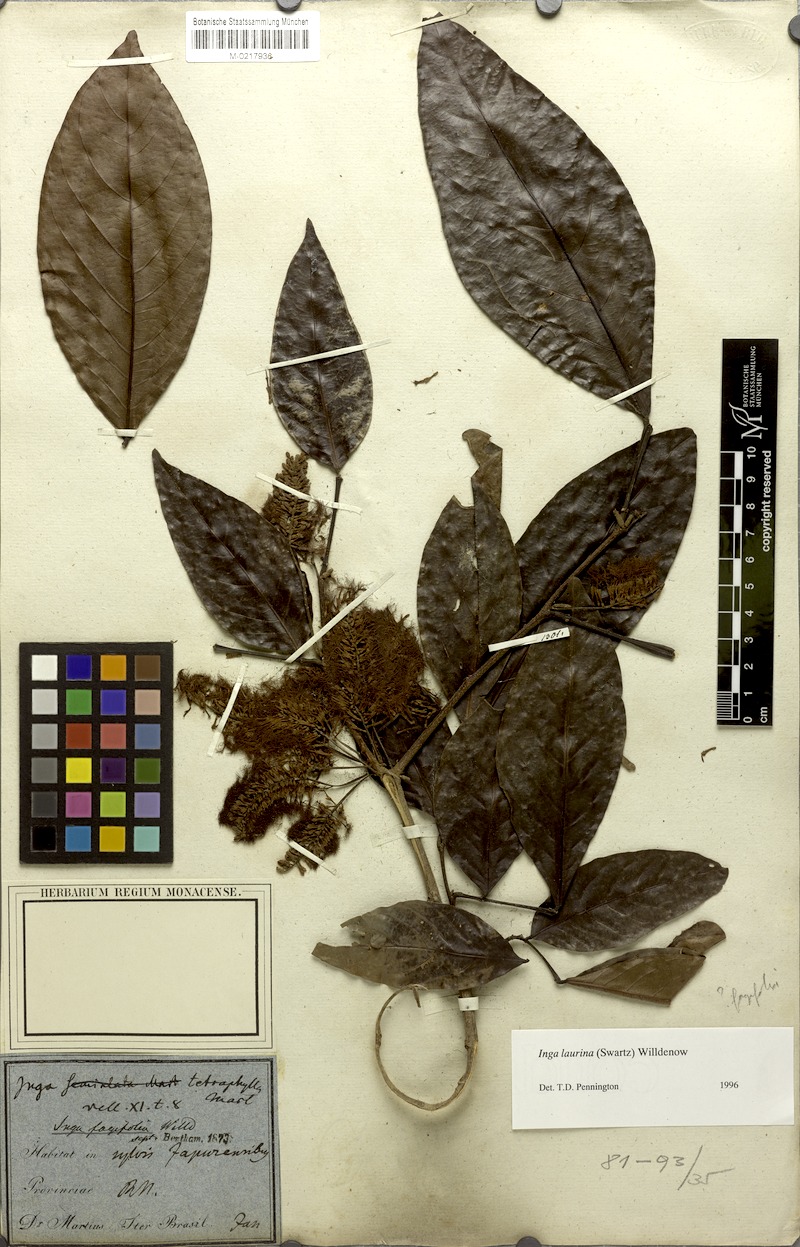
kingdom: Plantae
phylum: Tracheophyta
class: Magnoliopsida
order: Fabales
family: Fabaceae
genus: Inga
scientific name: Inga laurina
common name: Red wood
